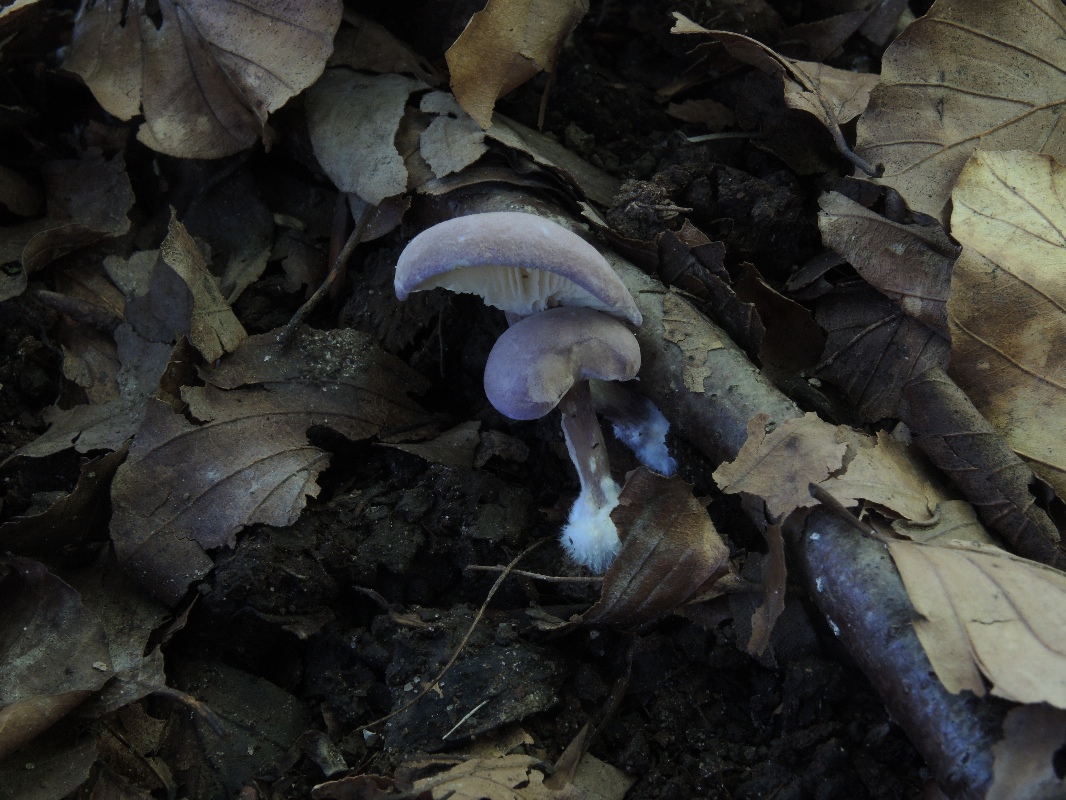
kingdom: Fungi
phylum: Basidiomycota
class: Agaricomycetes
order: Agaricales
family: Lyophyllaceae
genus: Calocybe
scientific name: Calocybe ionides
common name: violblå fagerhat
